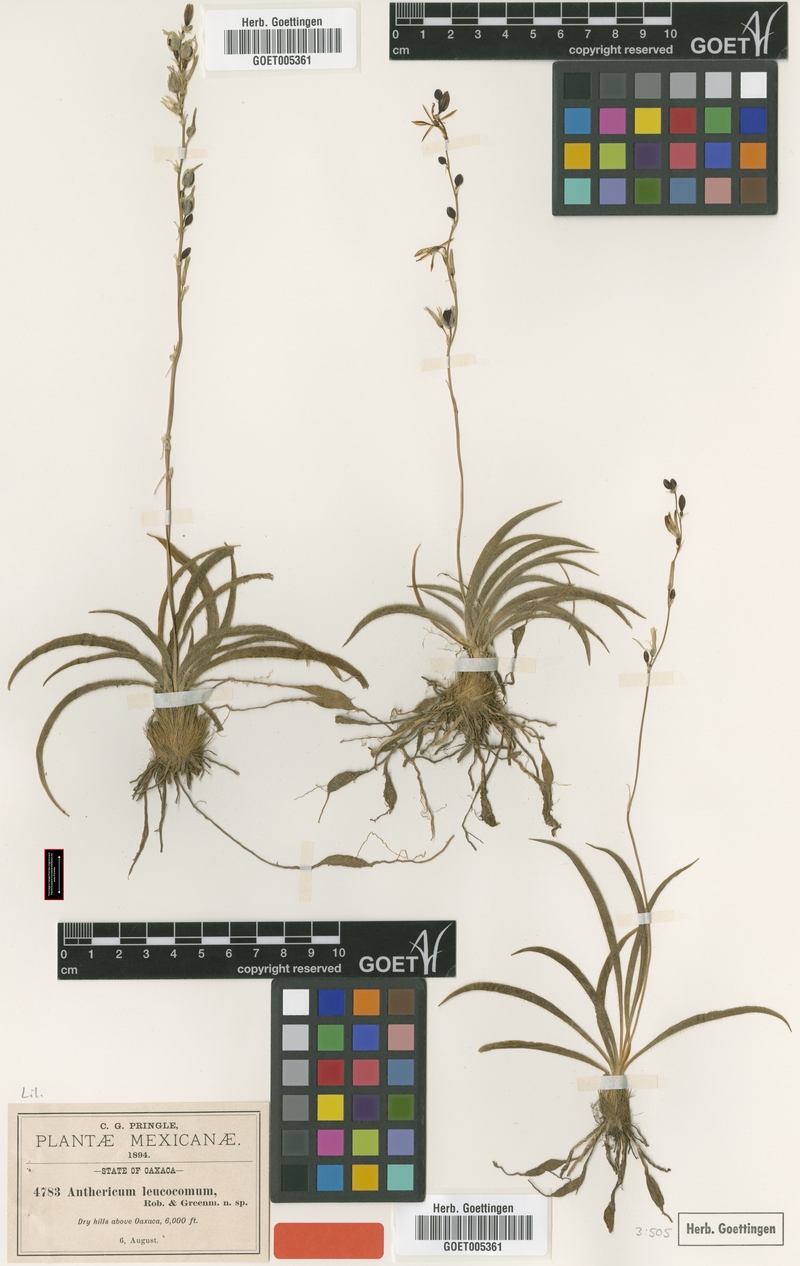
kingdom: Plantae
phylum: Tracheophyta
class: Liliopsida
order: Asparagales
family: Asparagaceae
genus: Echeandia
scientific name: Echeandia vestita
